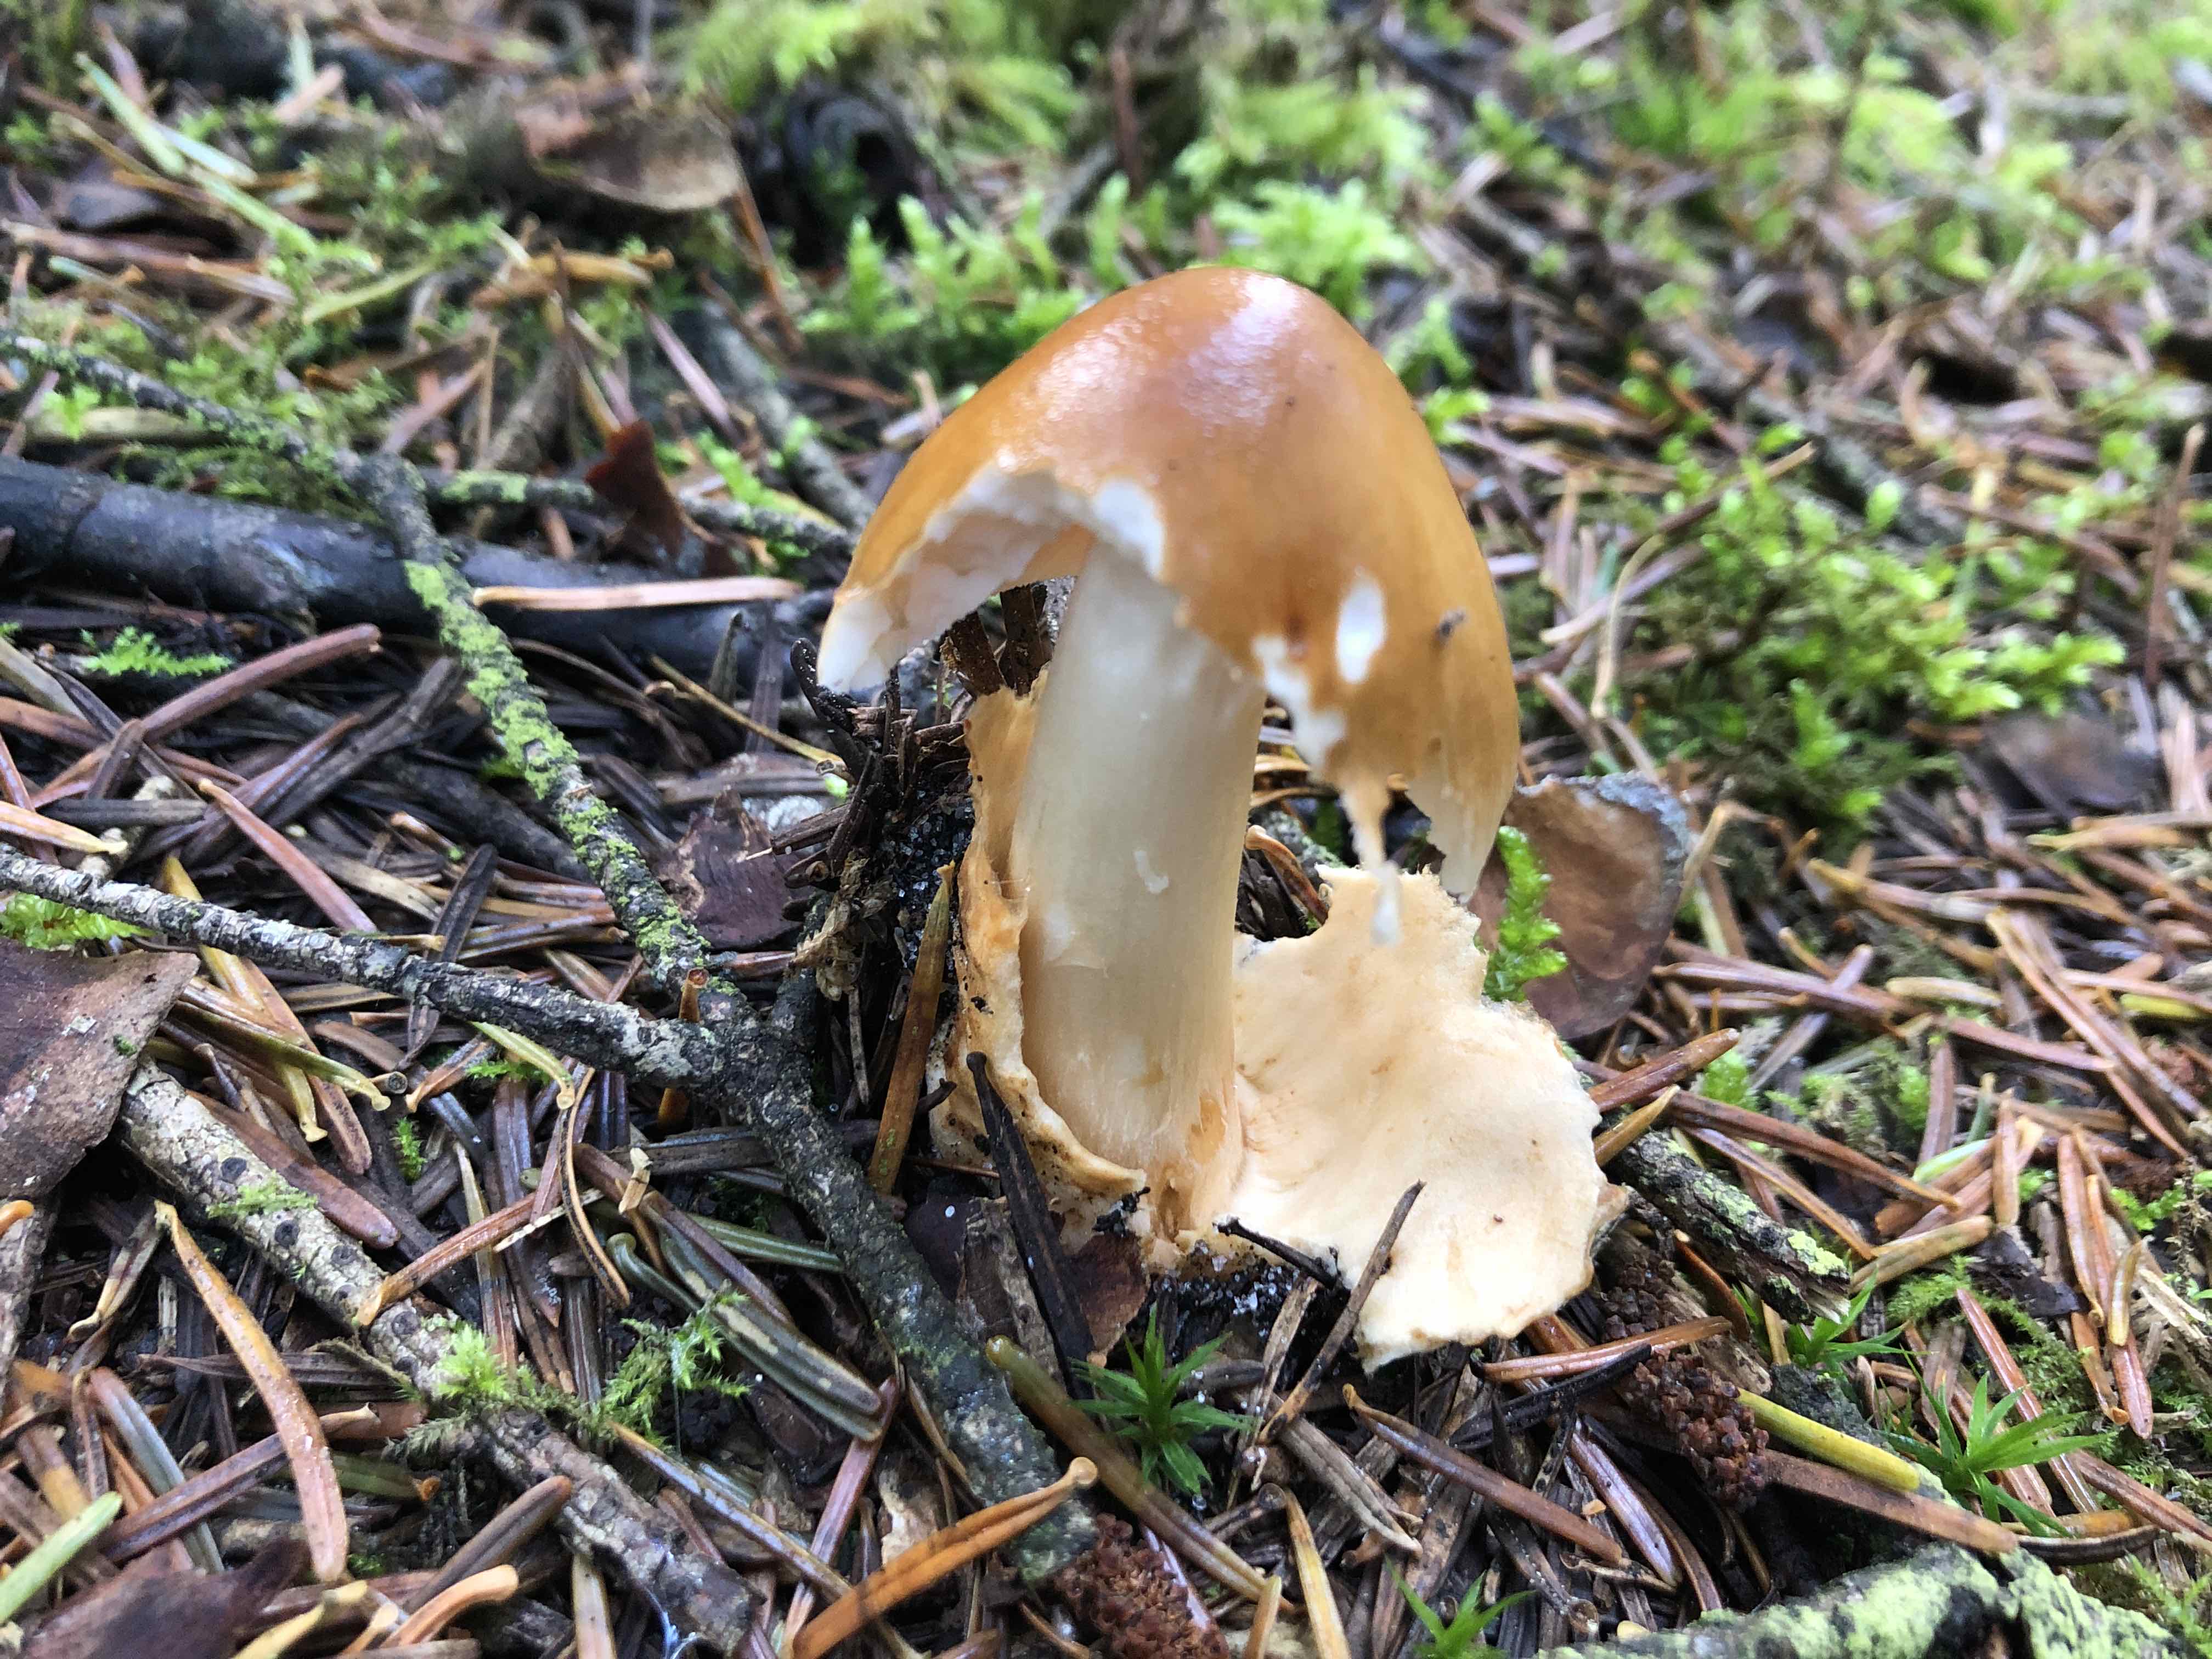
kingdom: Fungi
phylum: Basidiomycota
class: Agaricomycetes
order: Agaricales
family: Amanitaceae
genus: Amanita
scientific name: Amanita fulva
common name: brun kam-fluesvamp
